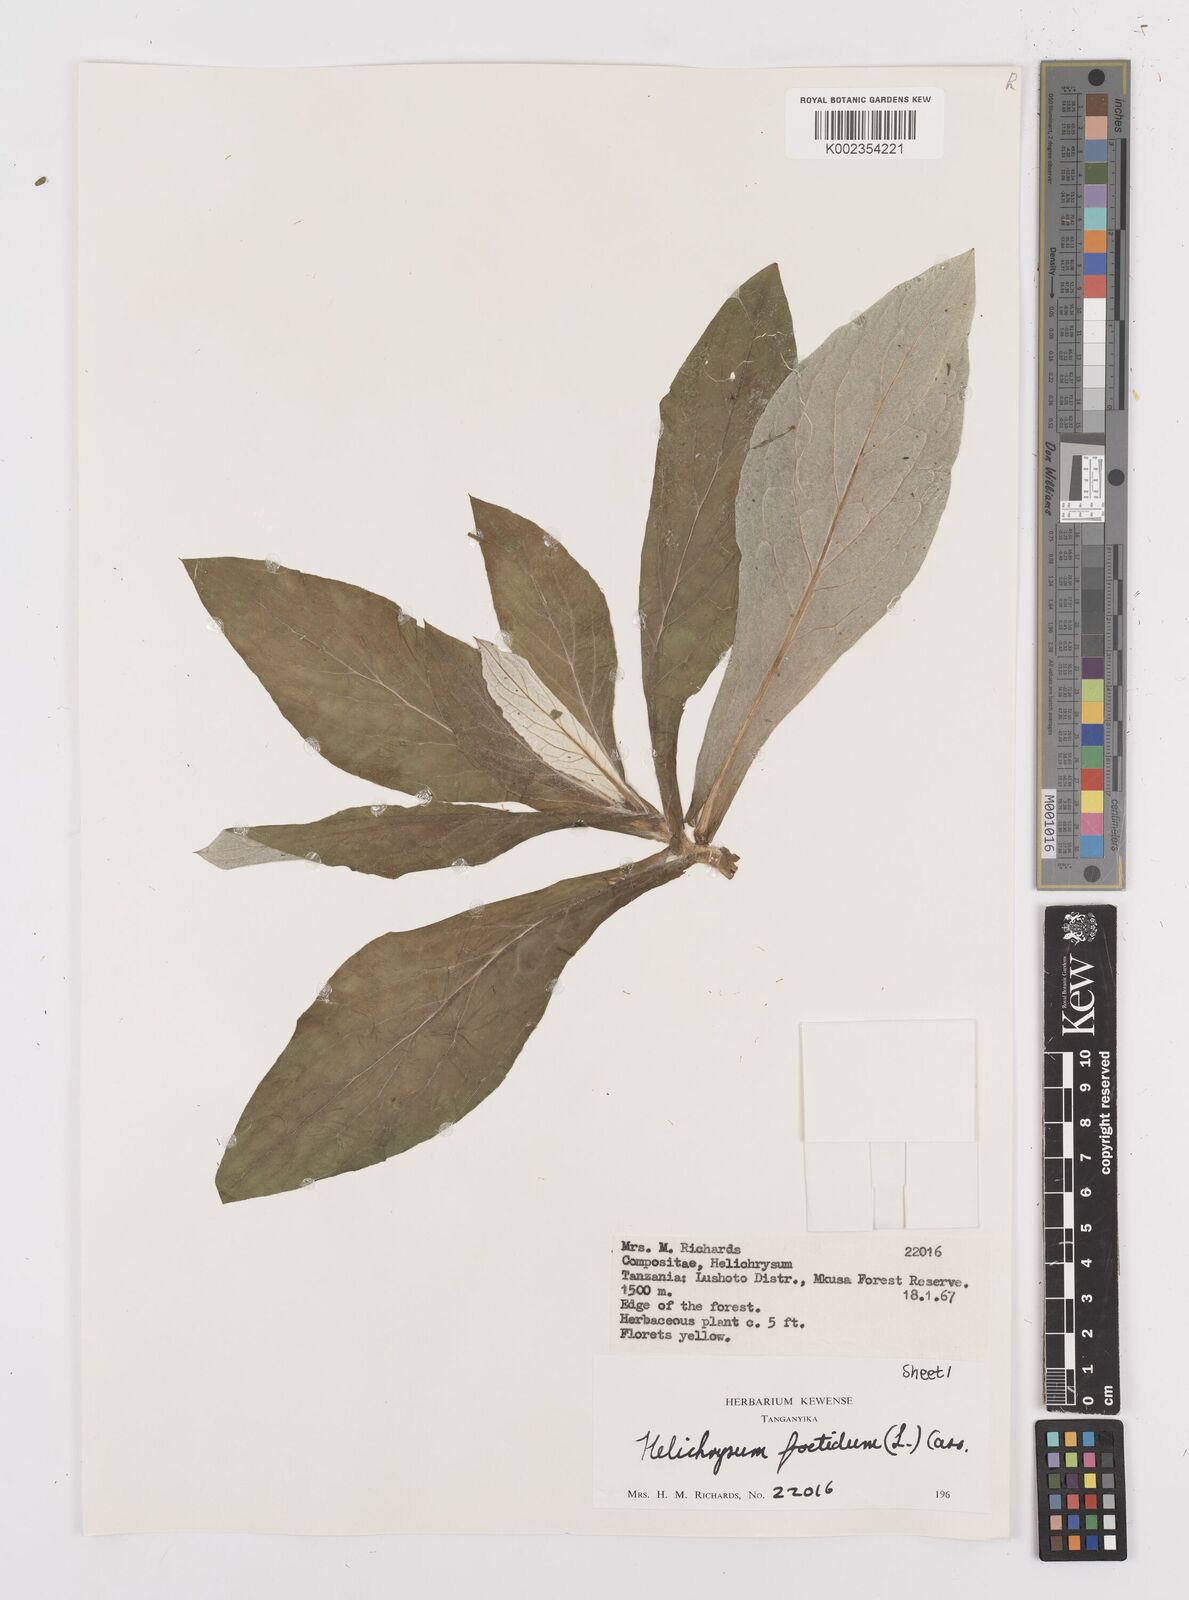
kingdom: Plantae
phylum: Tracheophyta
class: Magnoliopsida
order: Asterales
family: Asteraceae
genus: Helichrysum
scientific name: Helichrysum
